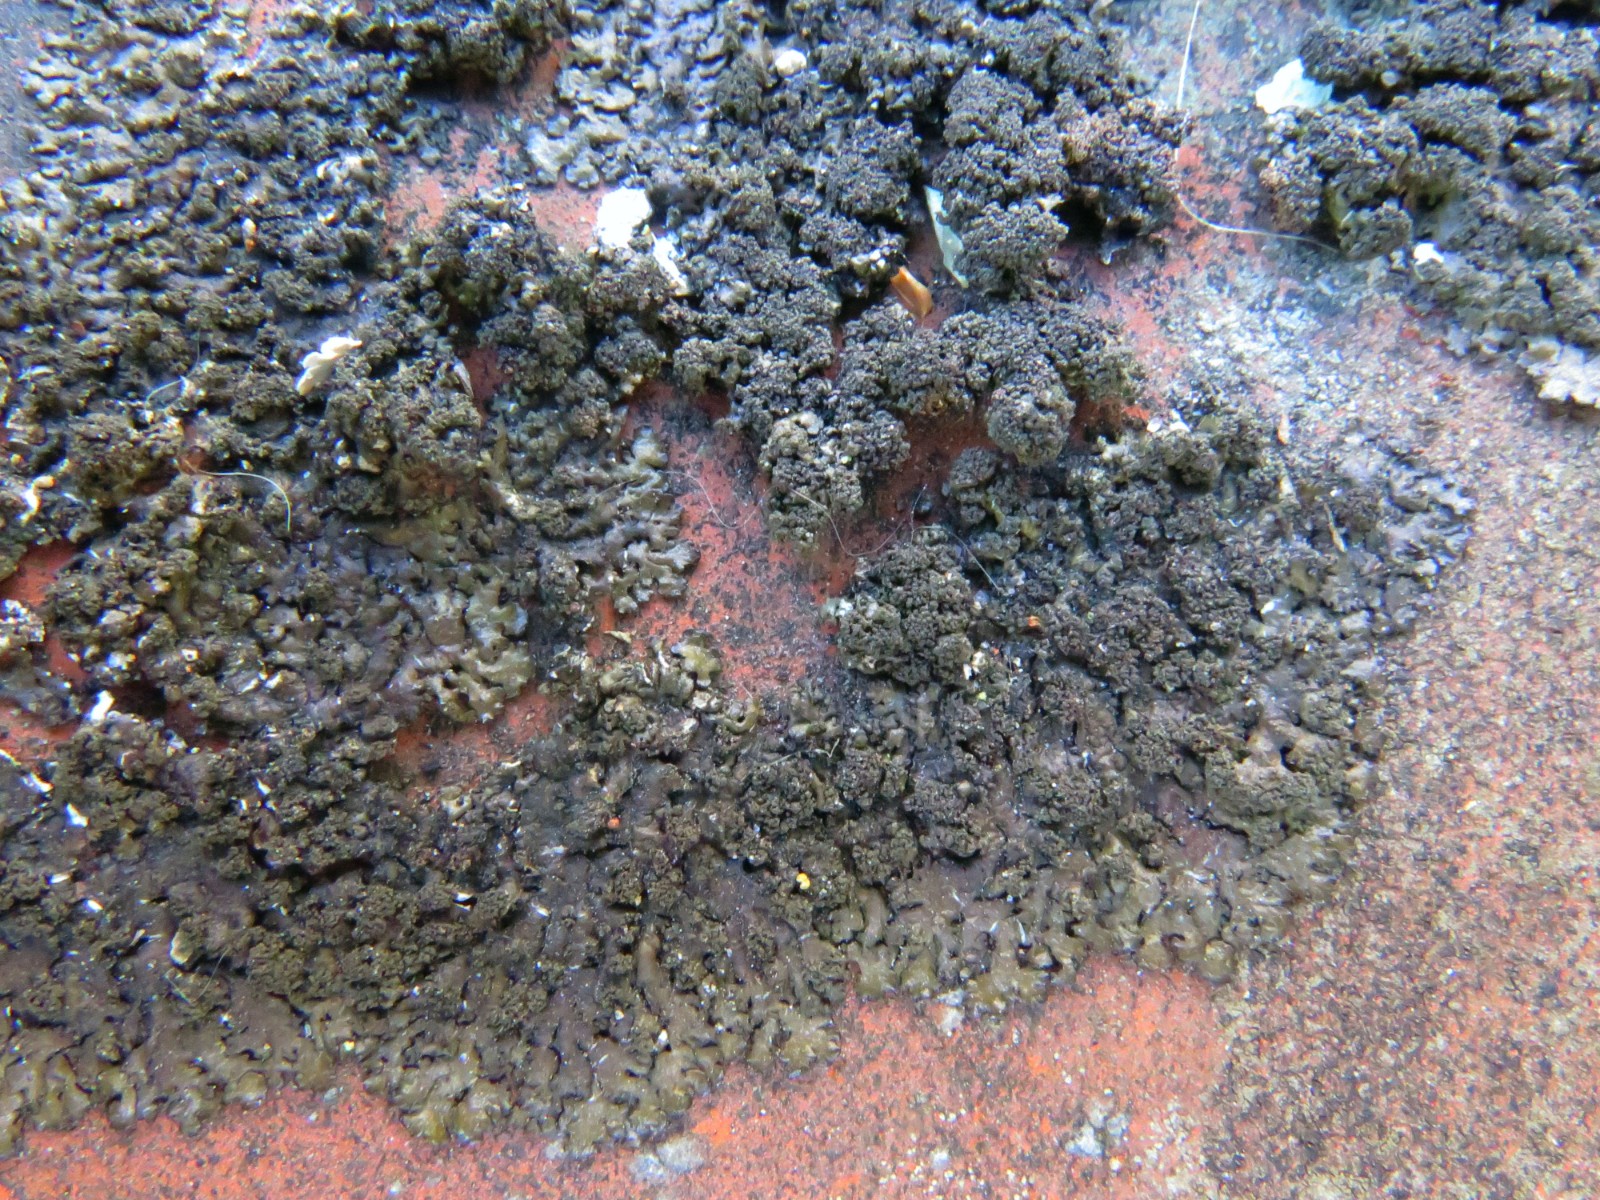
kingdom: Fungi
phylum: Ascomycota
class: Lecanoromycetes
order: Lecanorales
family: Parmeliaceae
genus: Melanelixia
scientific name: Melanelixia fuliginosa
